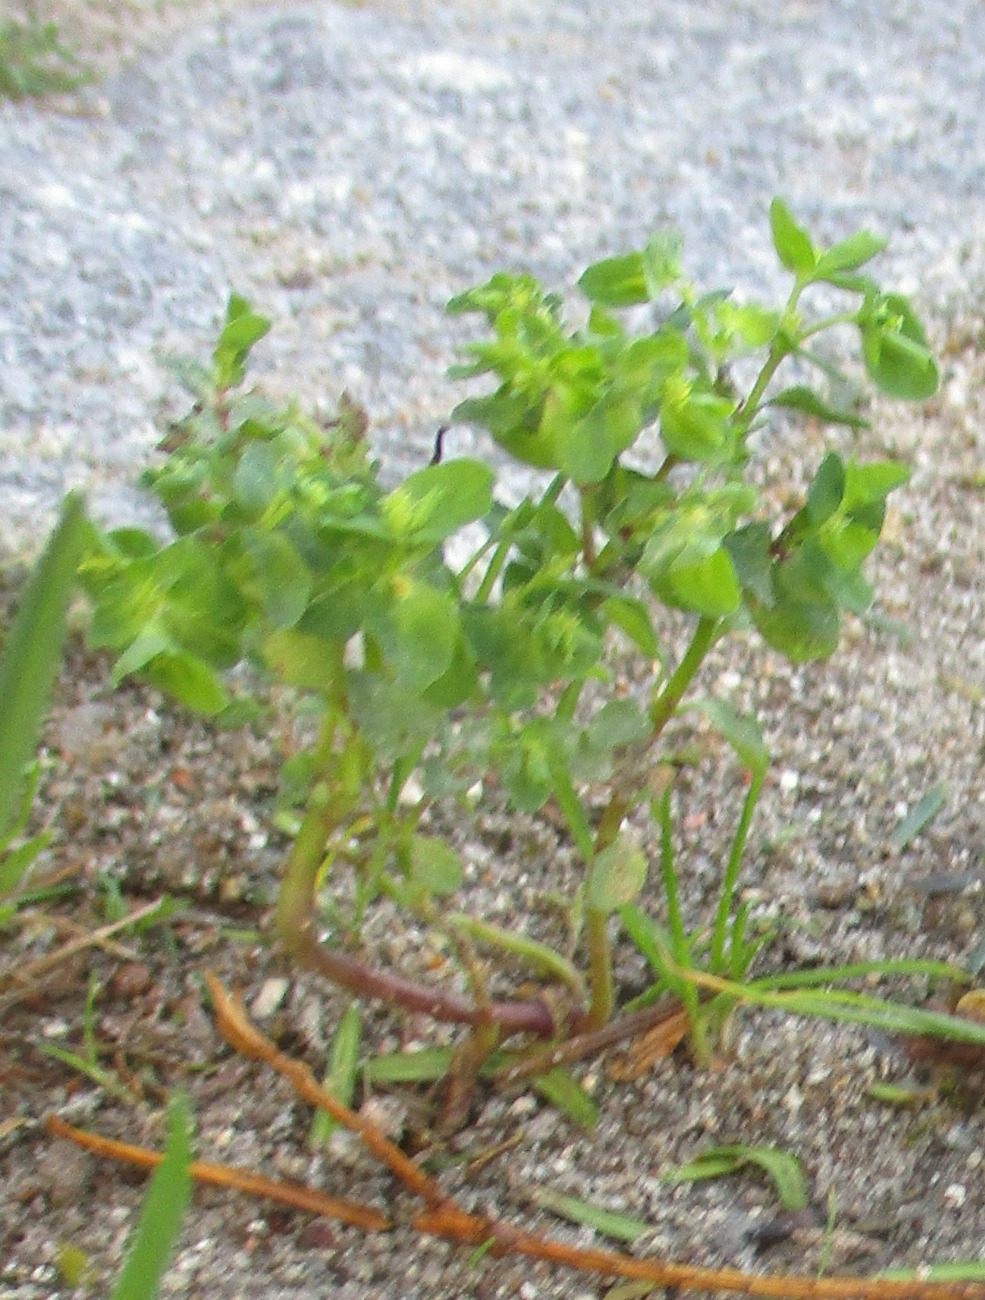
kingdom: Plantae
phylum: Tracheophyta
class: Magnoliopsida
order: Malpighiales
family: Euphorbiaceae
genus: Euphorbia
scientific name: Euphorbia peplus
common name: Gaffel-vortemælk
